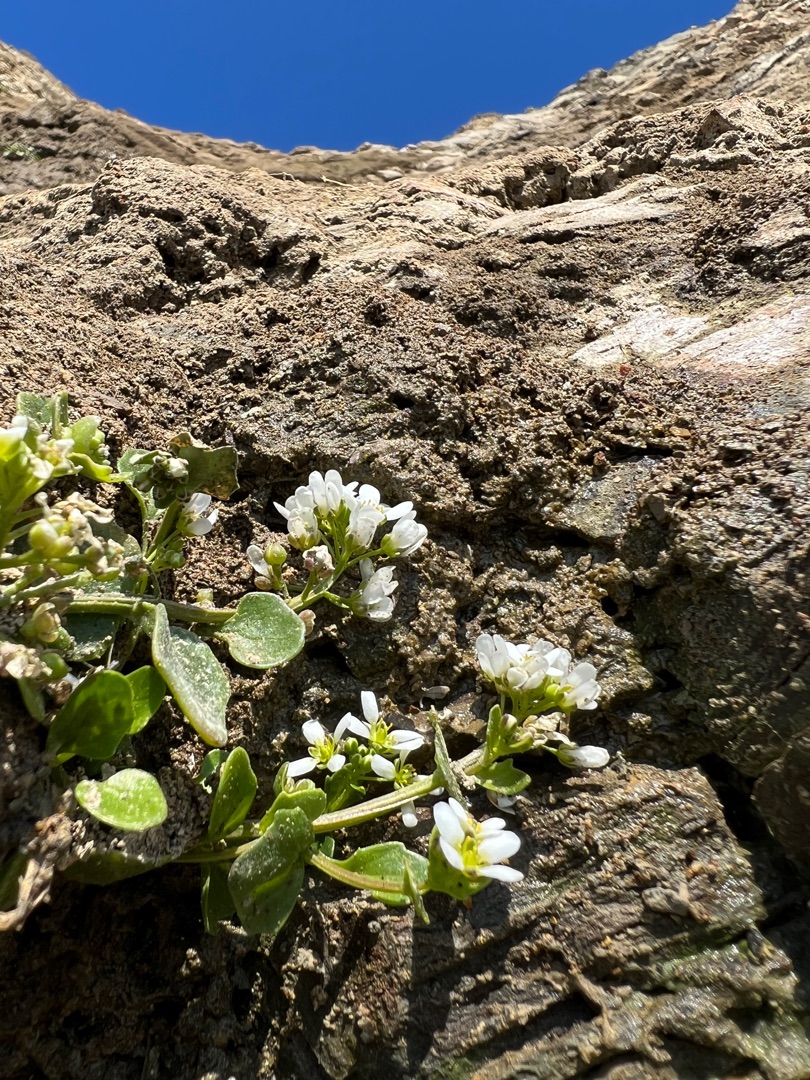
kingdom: Plantae
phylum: Tracheophyta
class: Magnoliopsida
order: Brassicales
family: Brassicaceae
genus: Cochlearia
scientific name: Cochlearia officinalis
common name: Læge-kokleare
